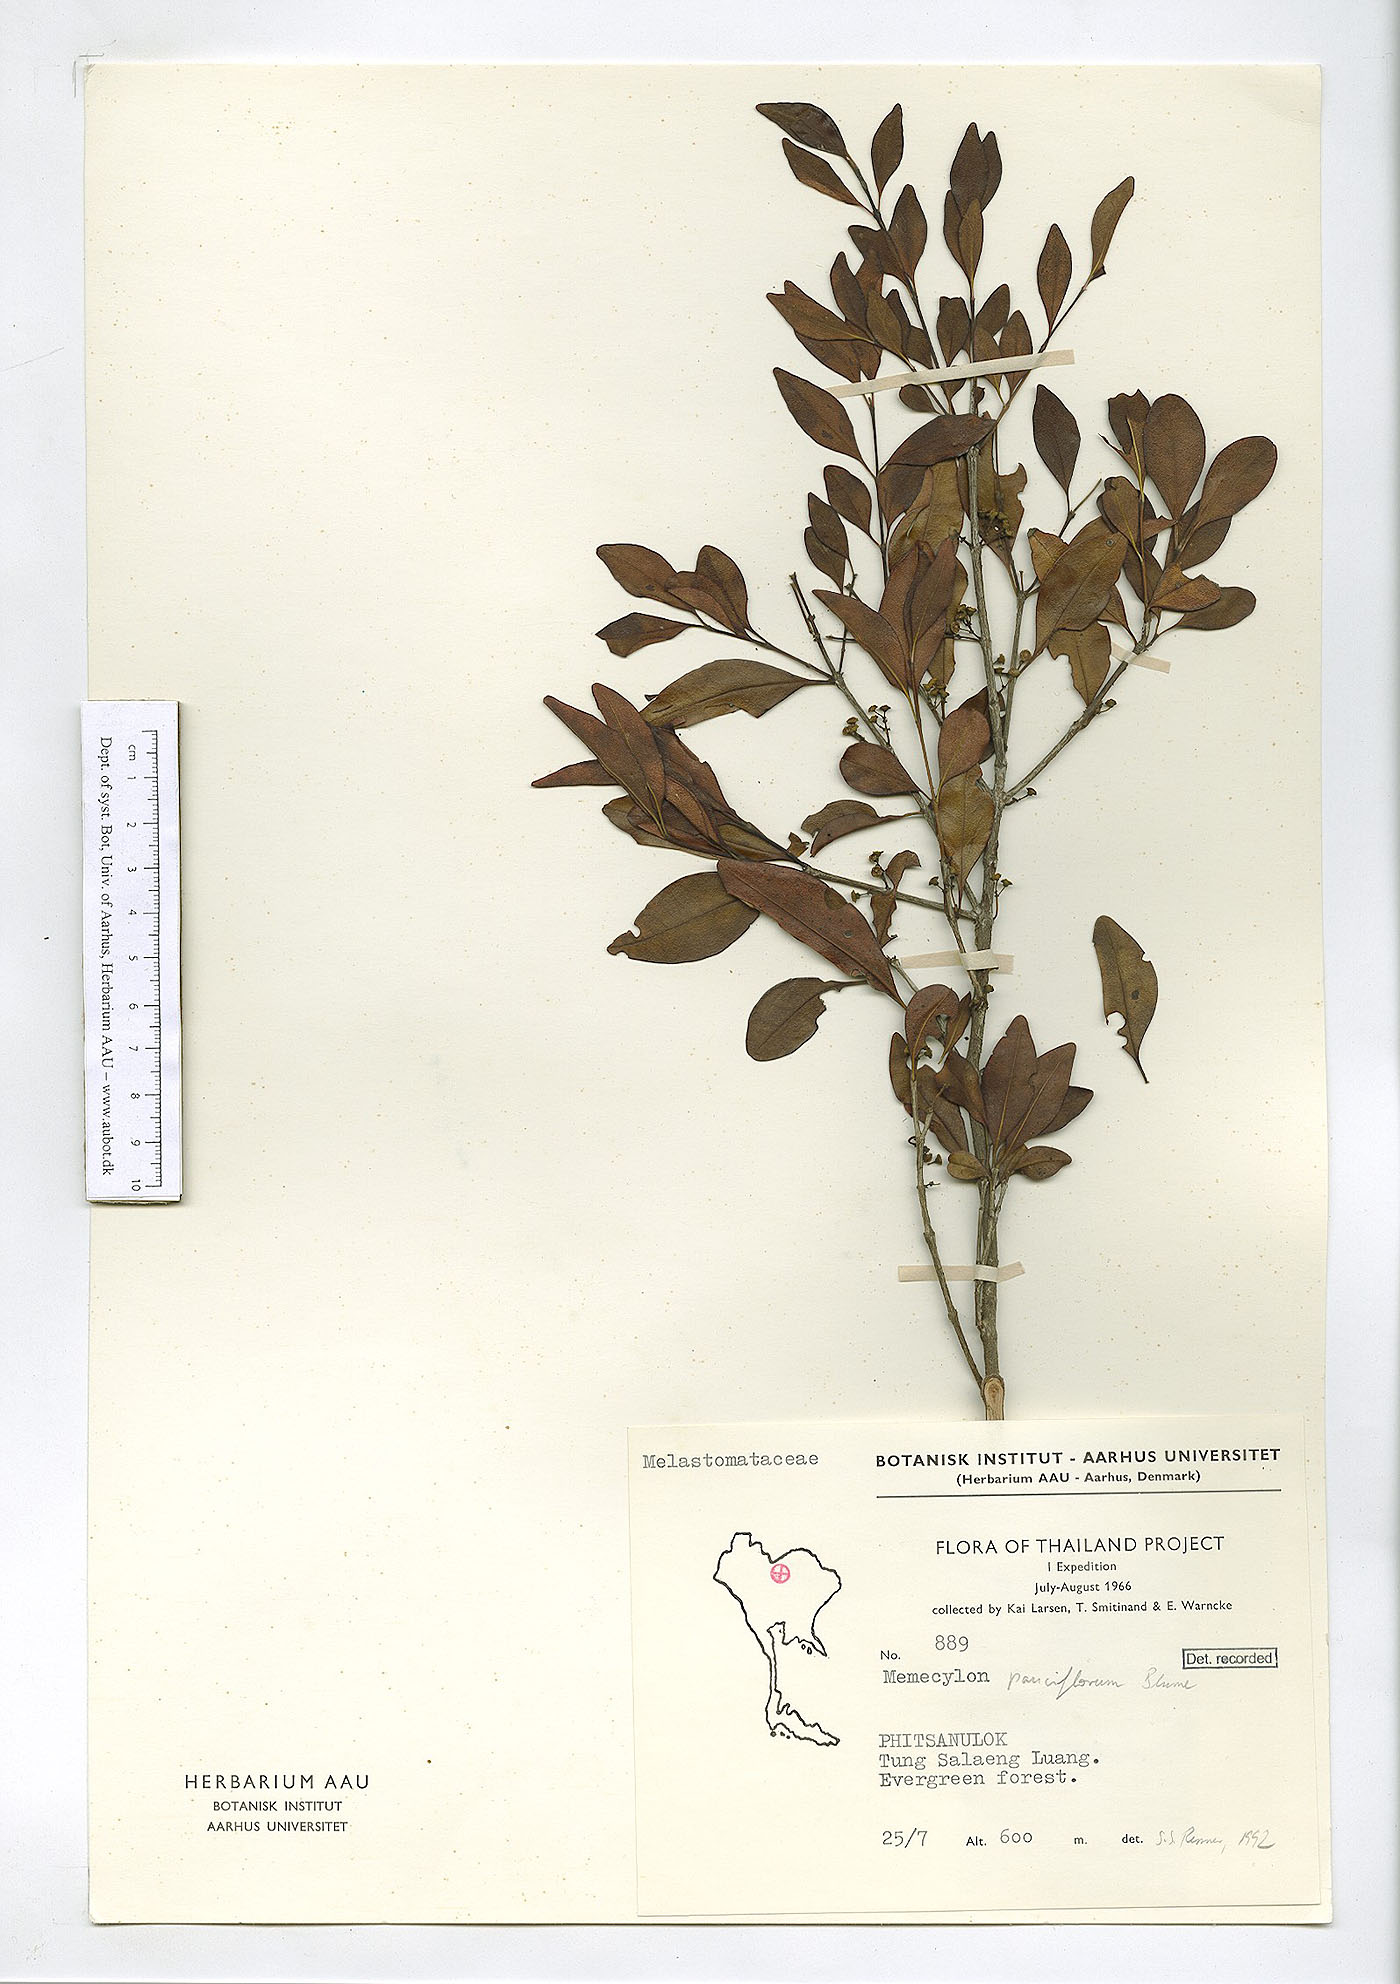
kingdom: Plantae
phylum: Tracheophyta
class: Magnoliopsida
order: Myrtales
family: Melastomataceae
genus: Memecylon
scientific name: Memecylon scutellatum
